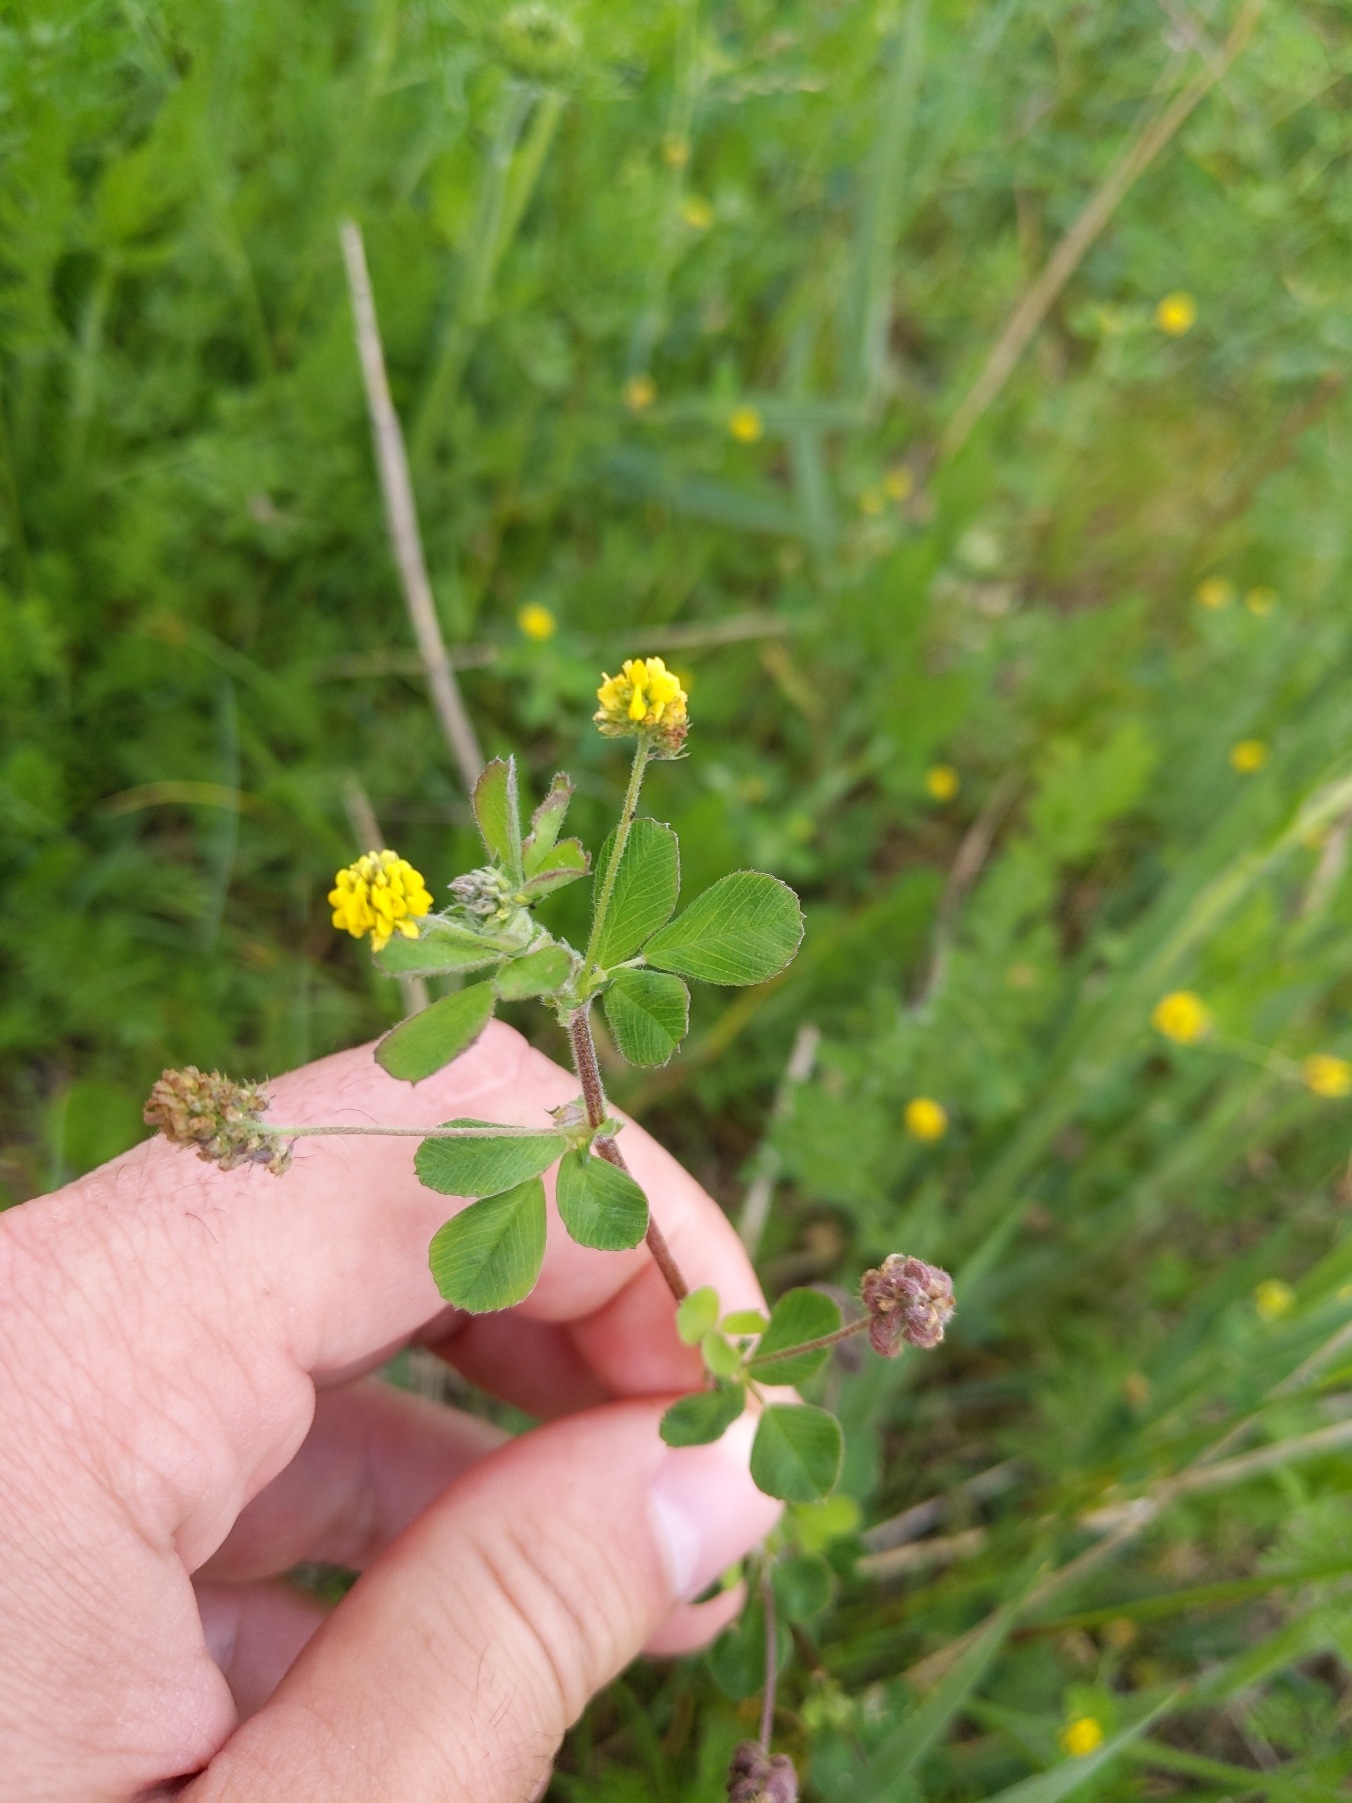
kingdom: Plantae
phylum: Tracheophyta
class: Magnoliopsida
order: Fabales
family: Fabaceae
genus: Medicago
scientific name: Medicago lupulina
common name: Humle-sneglebælg
